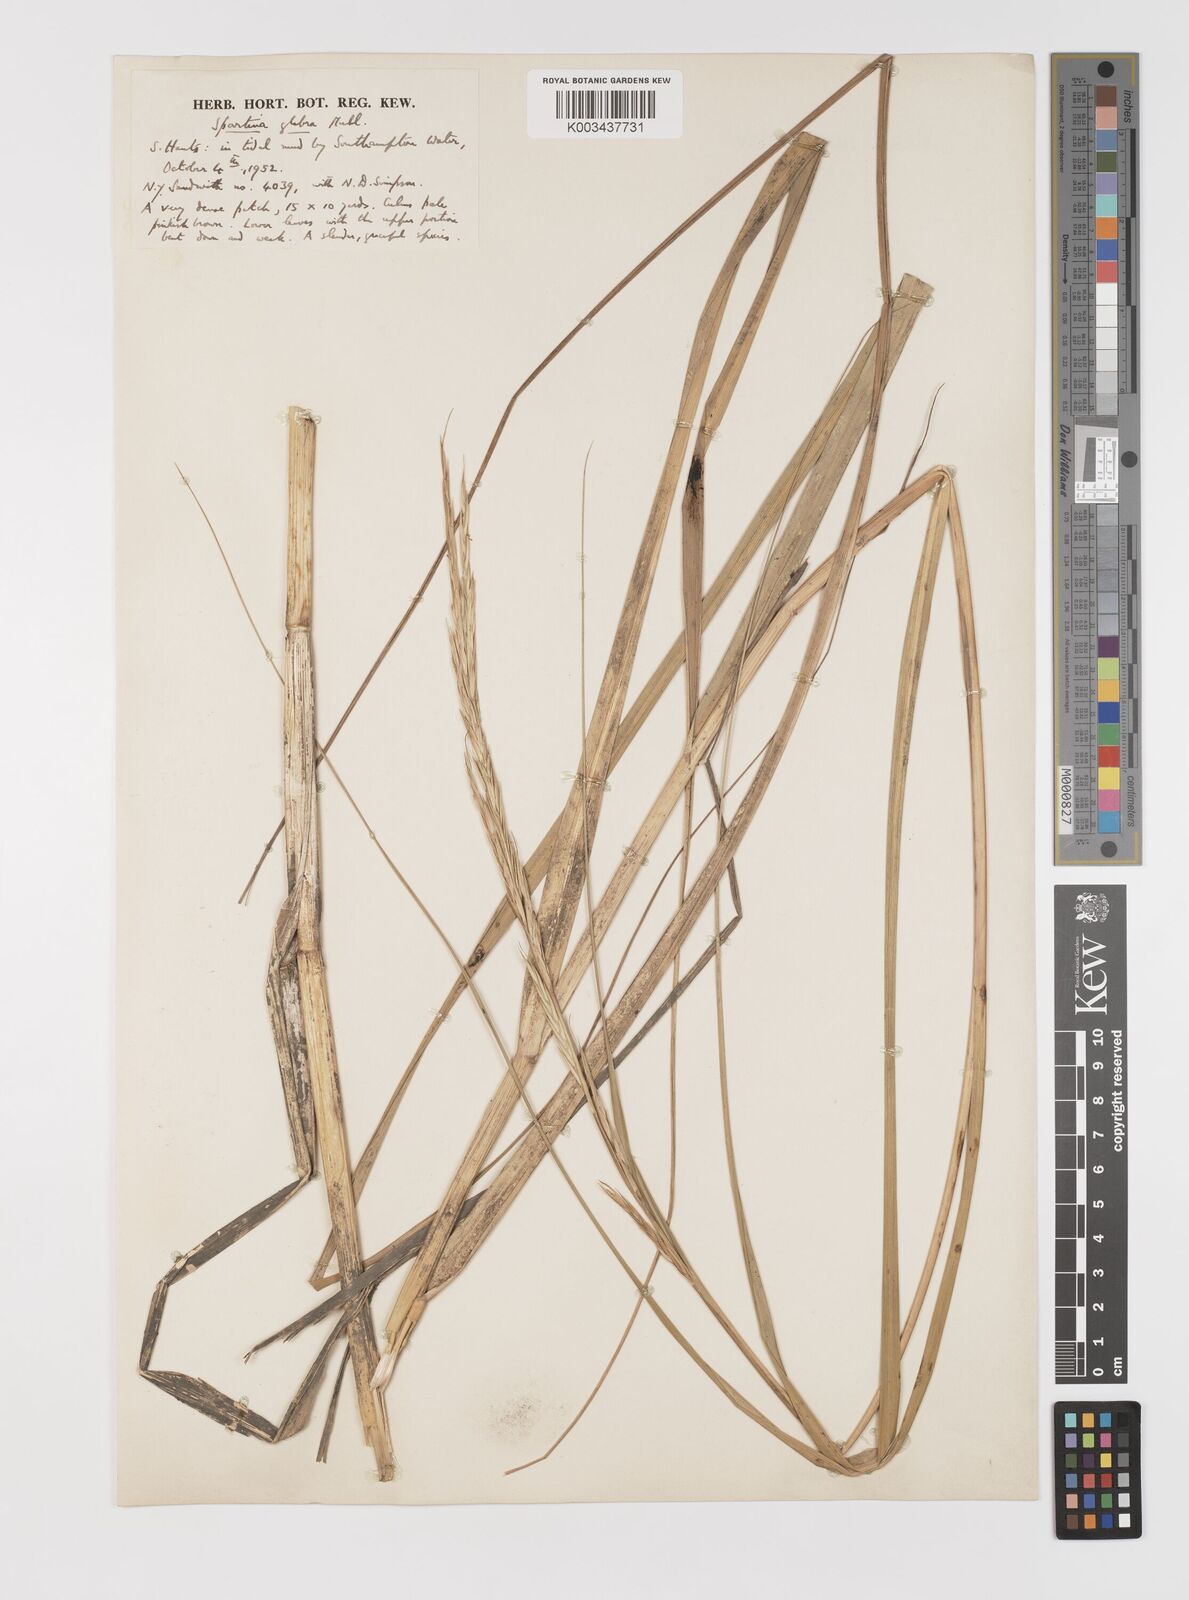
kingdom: Plantae
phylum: Tracheophyta
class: Liliopsida
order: Poales
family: Poaceae
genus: Sporobolus
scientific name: Sporobolus alterniflorus
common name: Atlantic cordgrass
